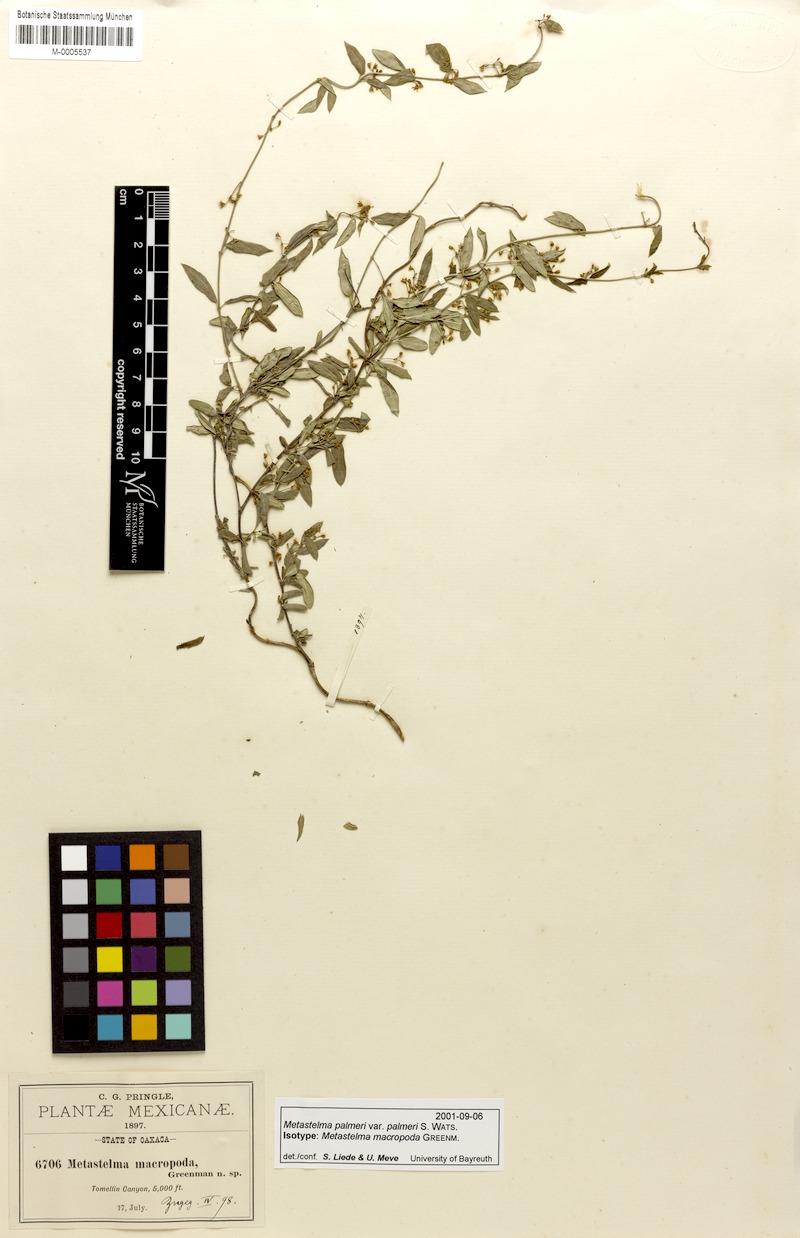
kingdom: Plantae
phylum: Tracheophyta
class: Magnoliopsida
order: Gentianales
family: Apocynaceae
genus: Metastelma
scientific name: Metastelma palmeri
